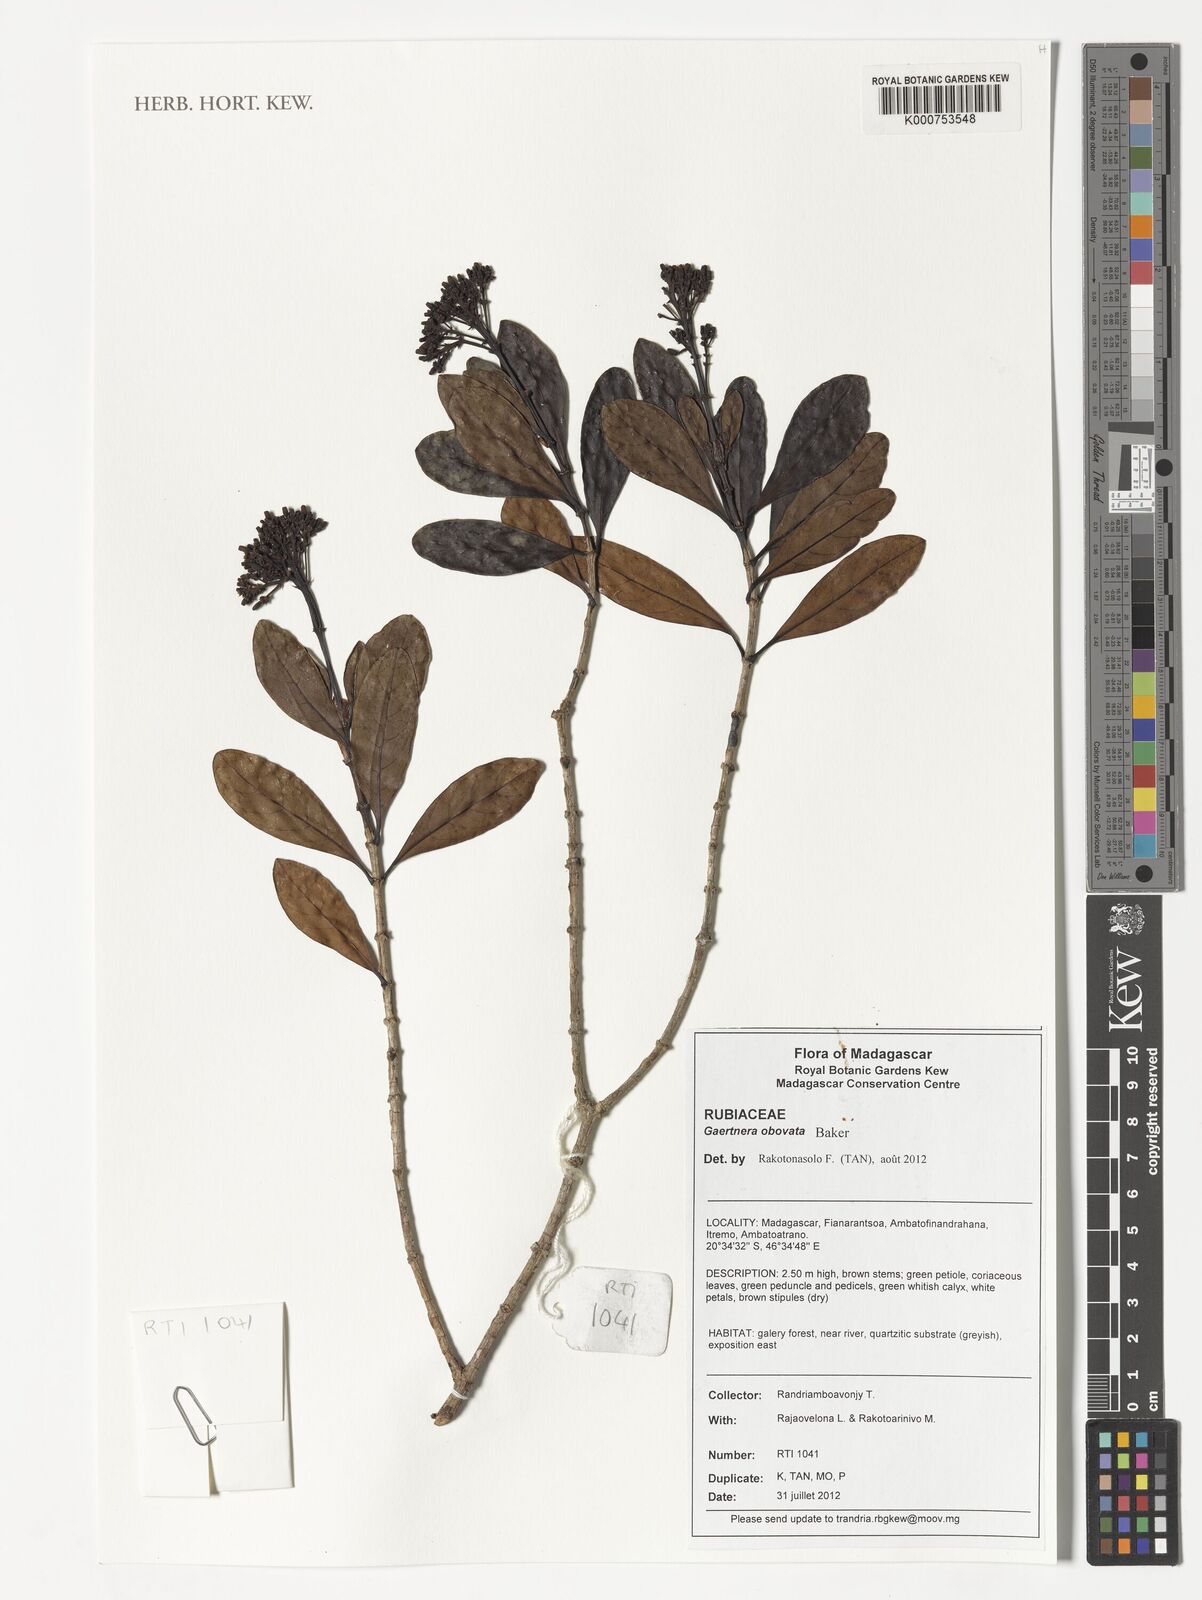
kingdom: Plantae
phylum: Tracheophyta
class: Magnoliopsida
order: Gentianales
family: Rubiaceae
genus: Gaertnera
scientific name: Gaertnera obovata
